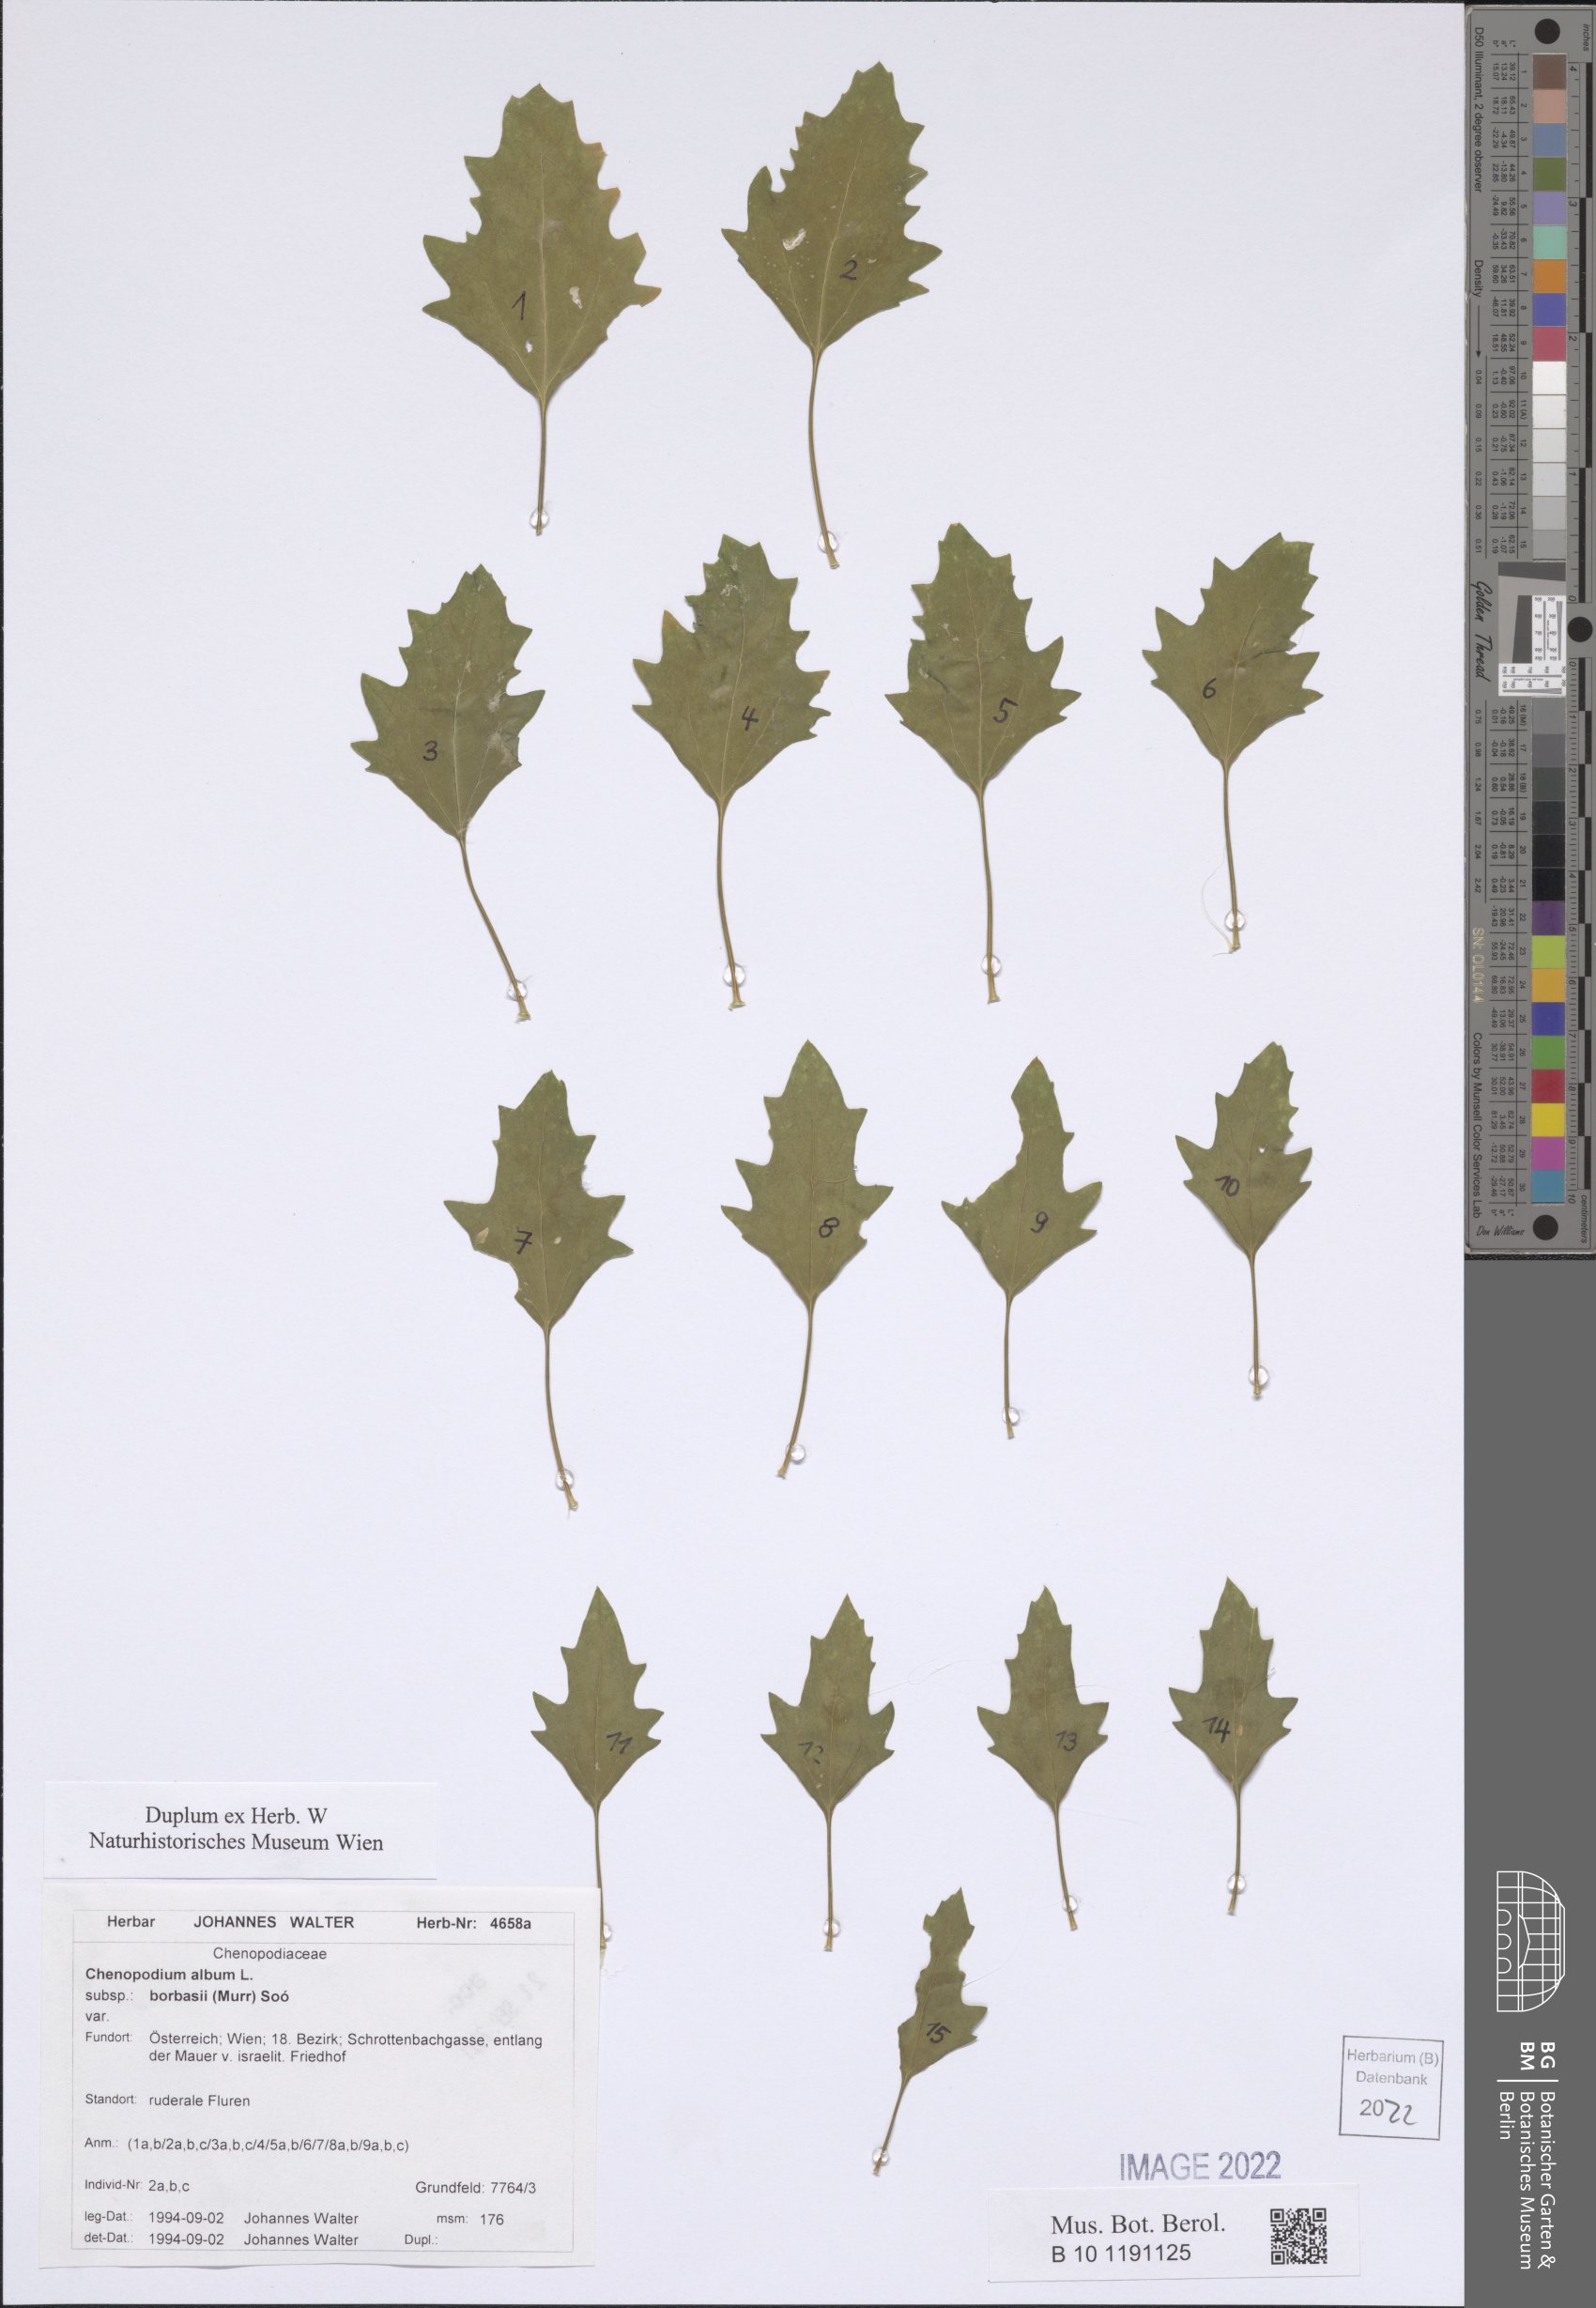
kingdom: Plantae
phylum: Tracheophyta
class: Magnoliopsida
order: Caryophyllales
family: Amaranthaceae
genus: Chenopodium
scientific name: Chenopodium borbasii
